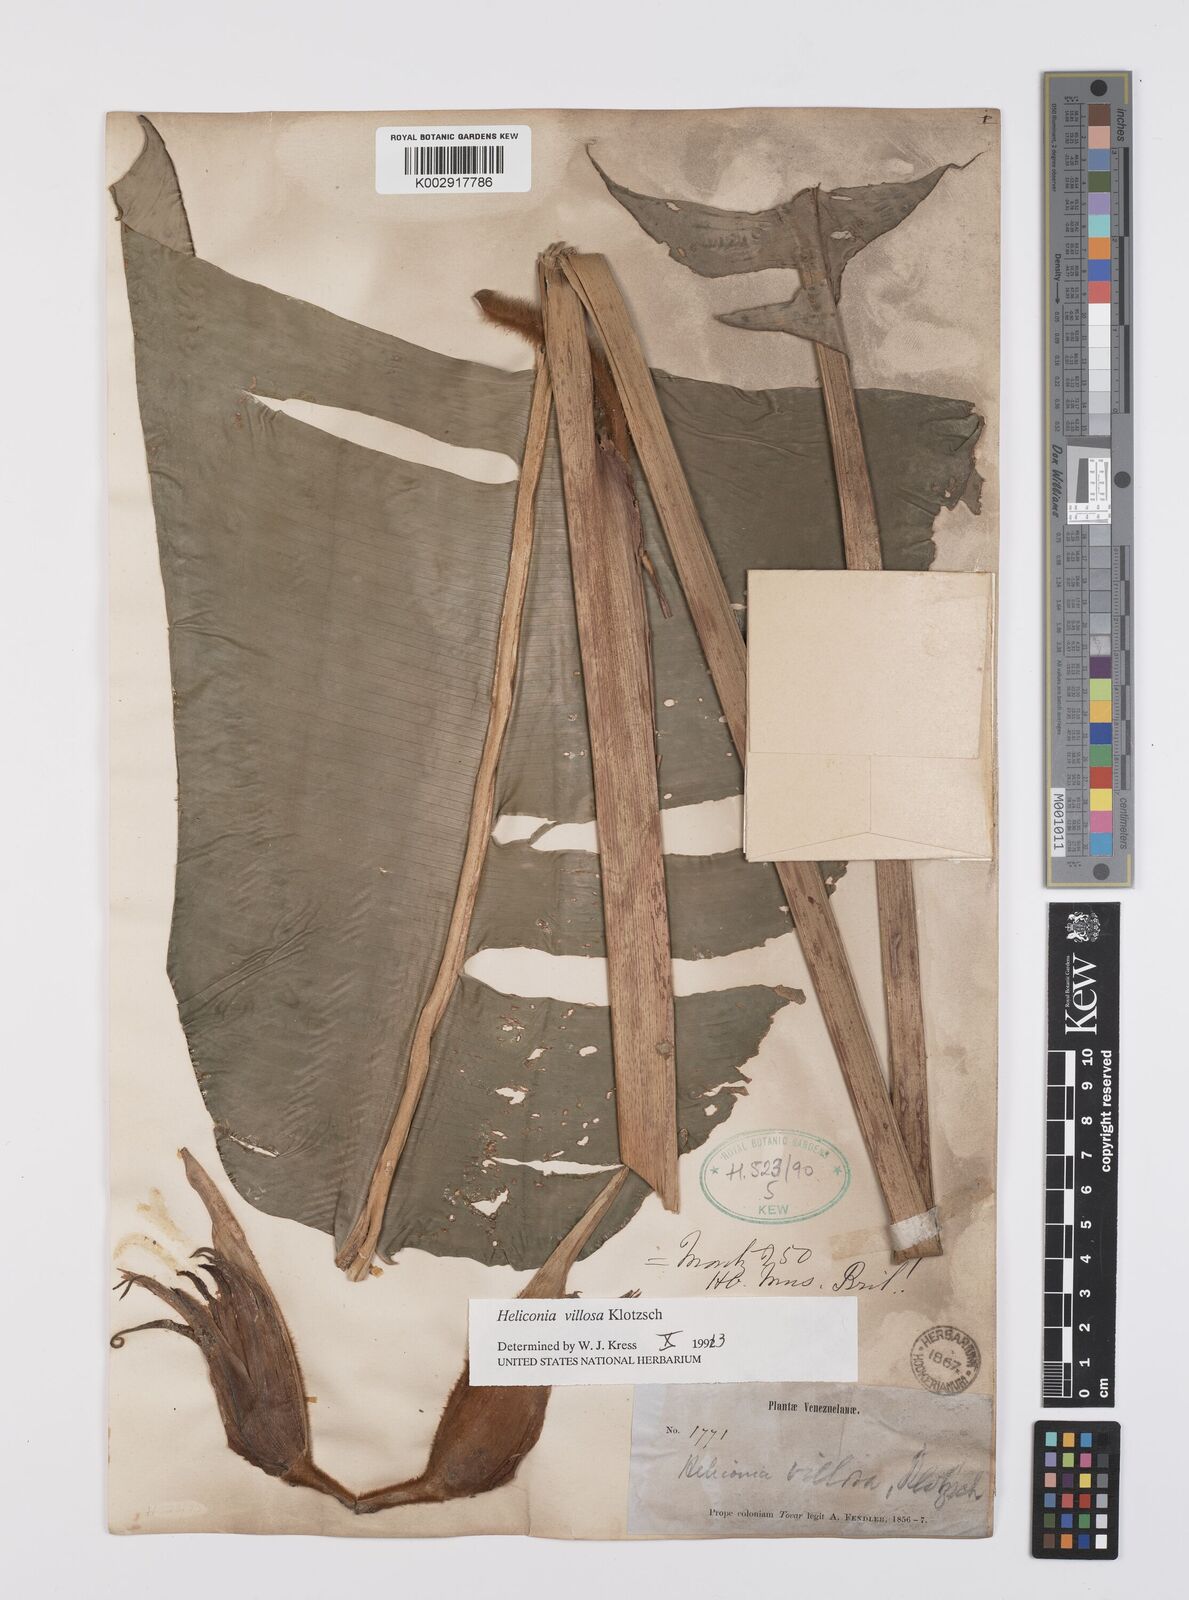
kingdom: Plantae
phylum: Tracheophyta
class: Liliopsida
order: Zingiberales
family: Heliconiaceae
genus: Heliconia
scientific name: Heliconia villosa
